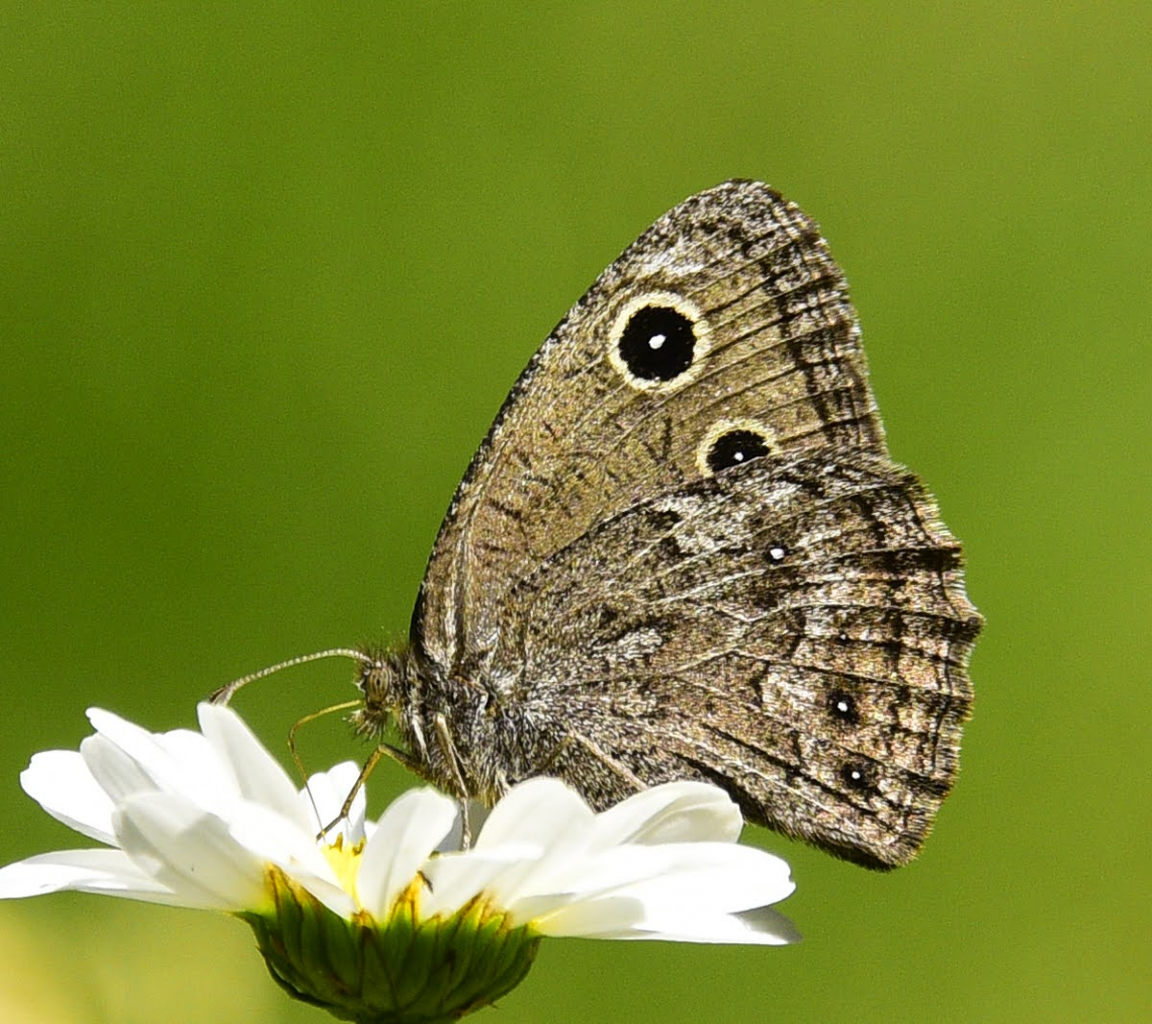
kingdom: Animalia
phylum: Arthropoda
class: Insecta
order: Lepidoptera
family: Nymphalidae
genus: Cercyonis
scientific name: Cercyonis oetus
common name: Small Wood-Nymph
